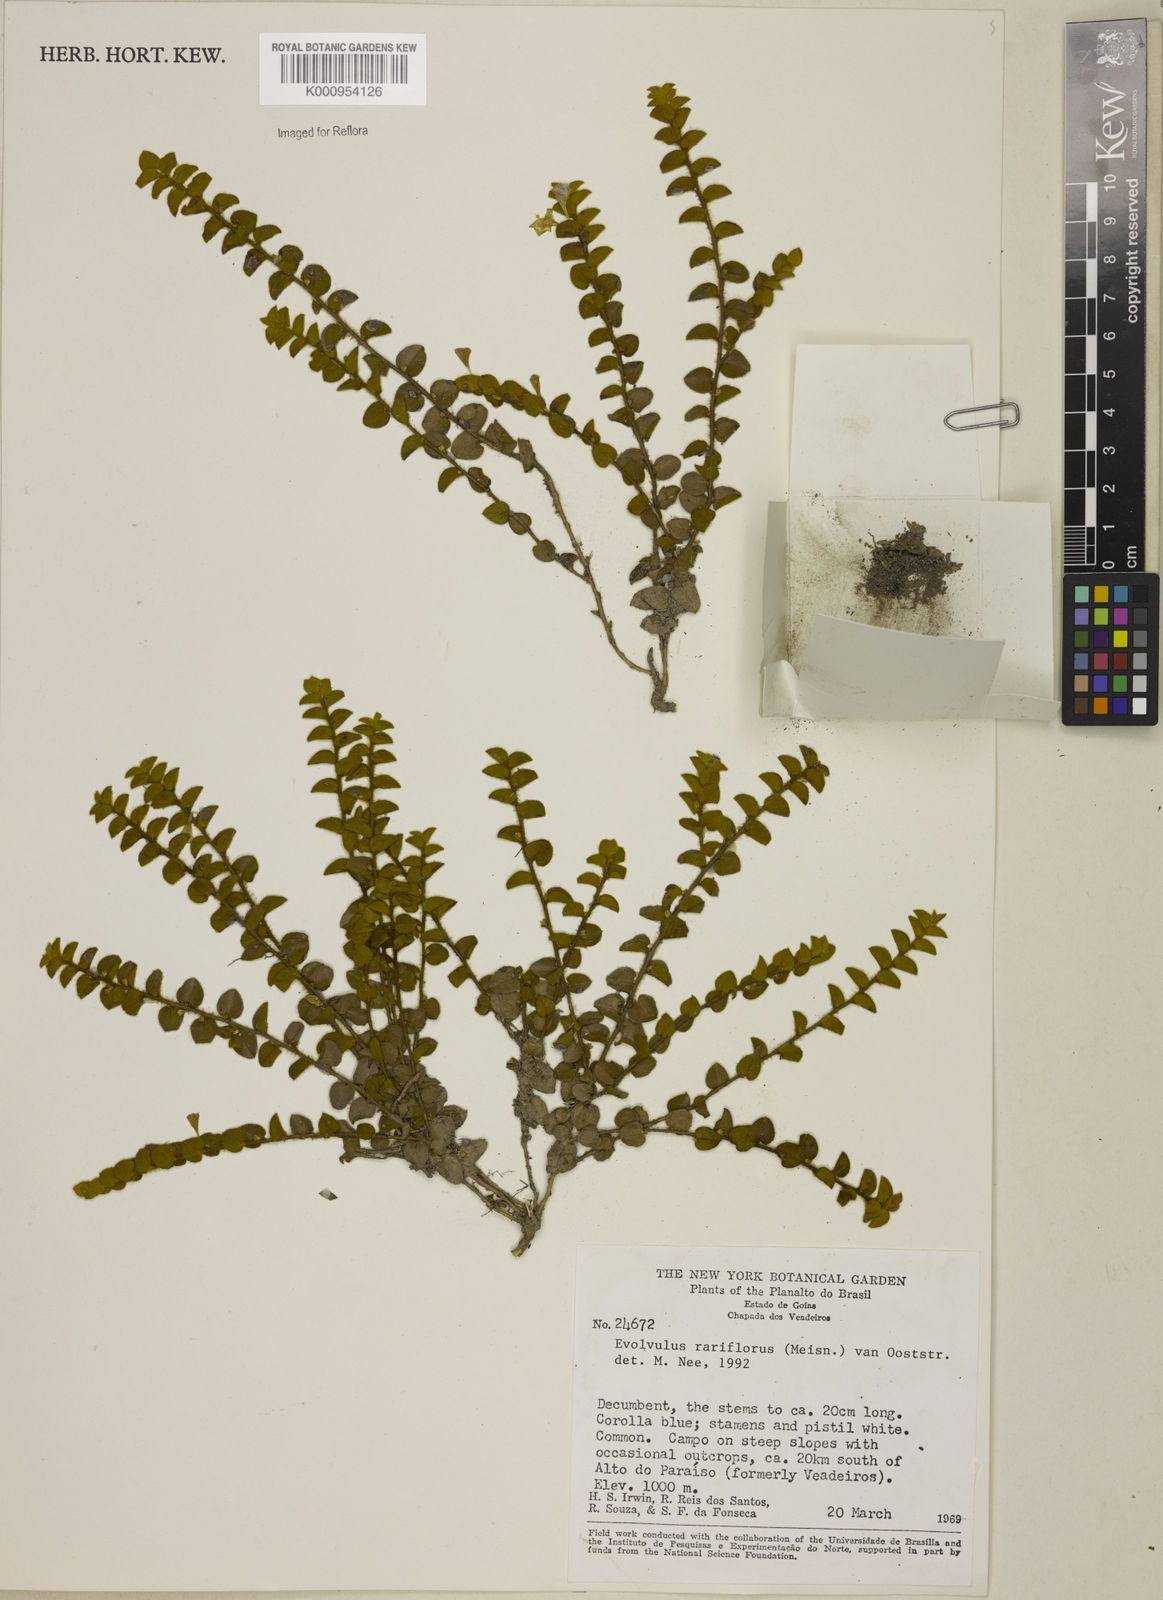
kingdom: Plantae
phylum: Tracheophyta
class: Magnoliopsida
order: Solanales
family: Convolvulaceae
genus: Evolvulus
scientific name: Evolvulus rariflorus
